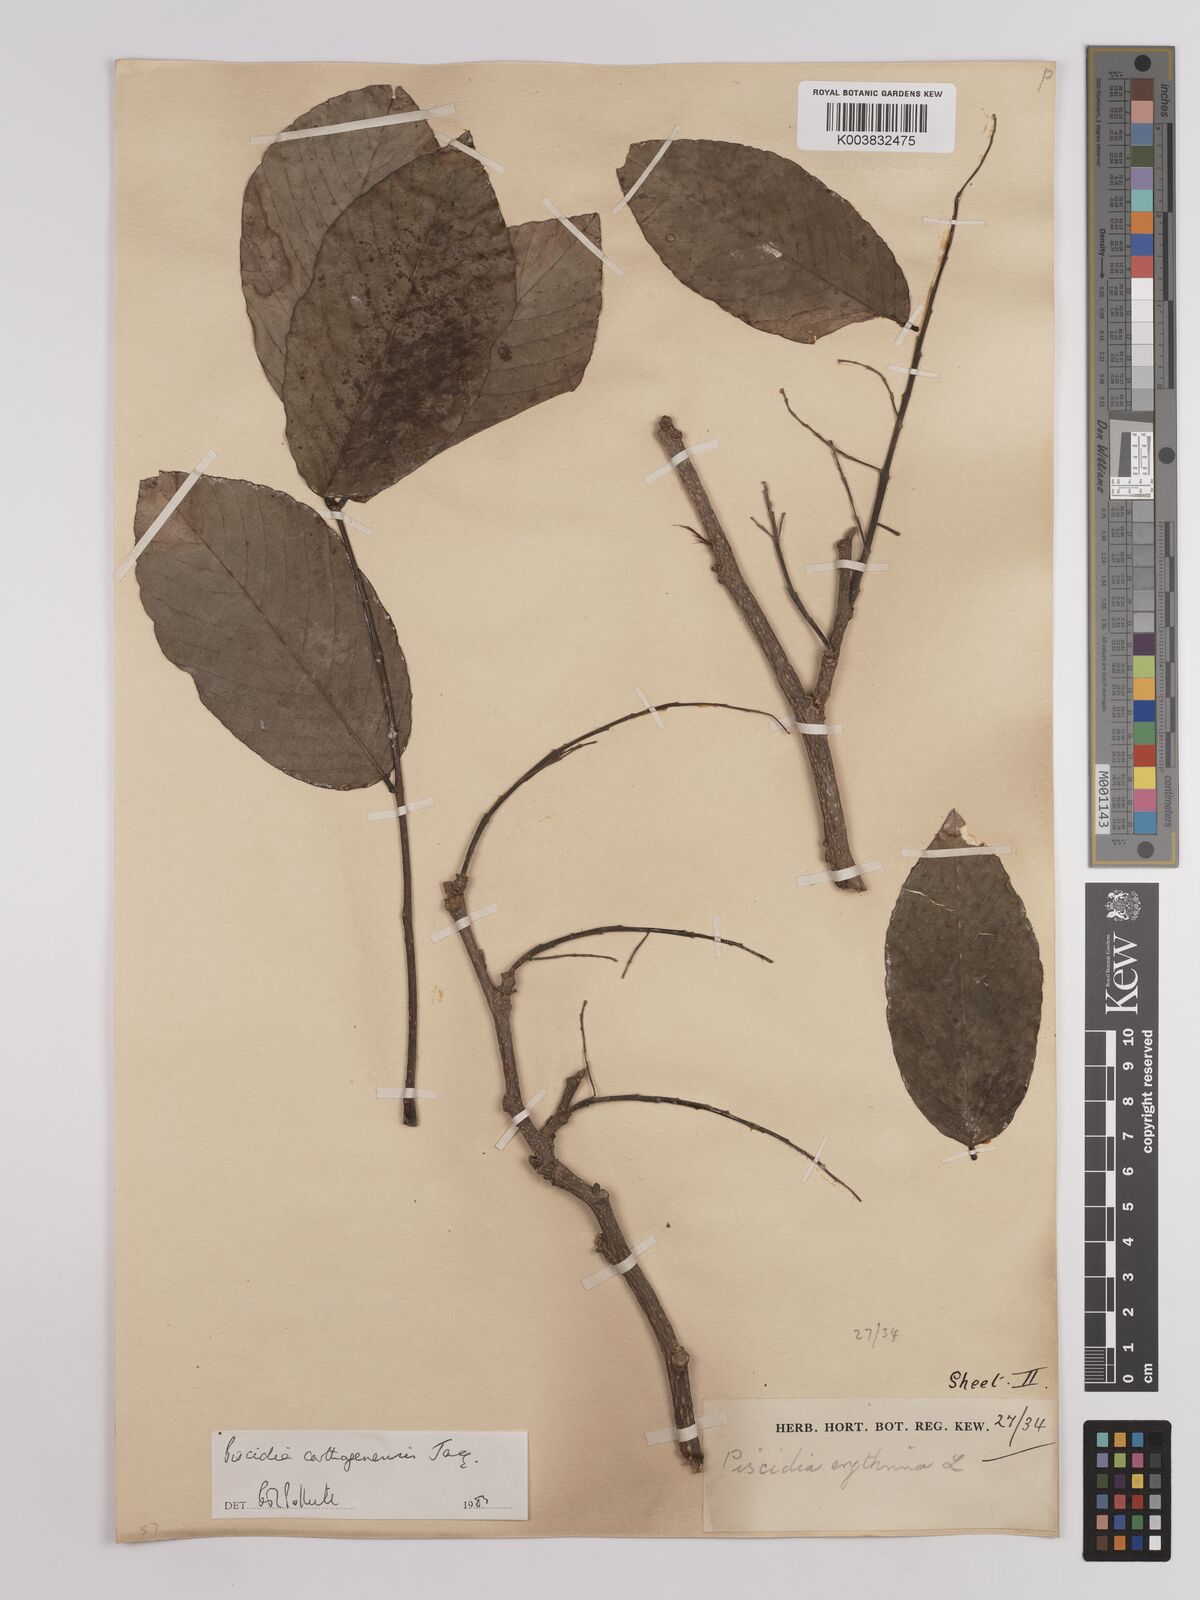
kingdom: Plantae
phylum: Tracheophyta
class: Magnoliopsida
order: Fabales
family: Fabaceae
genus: Piscidia
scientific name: Piscidia carthagenensis
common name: Stinkwood
